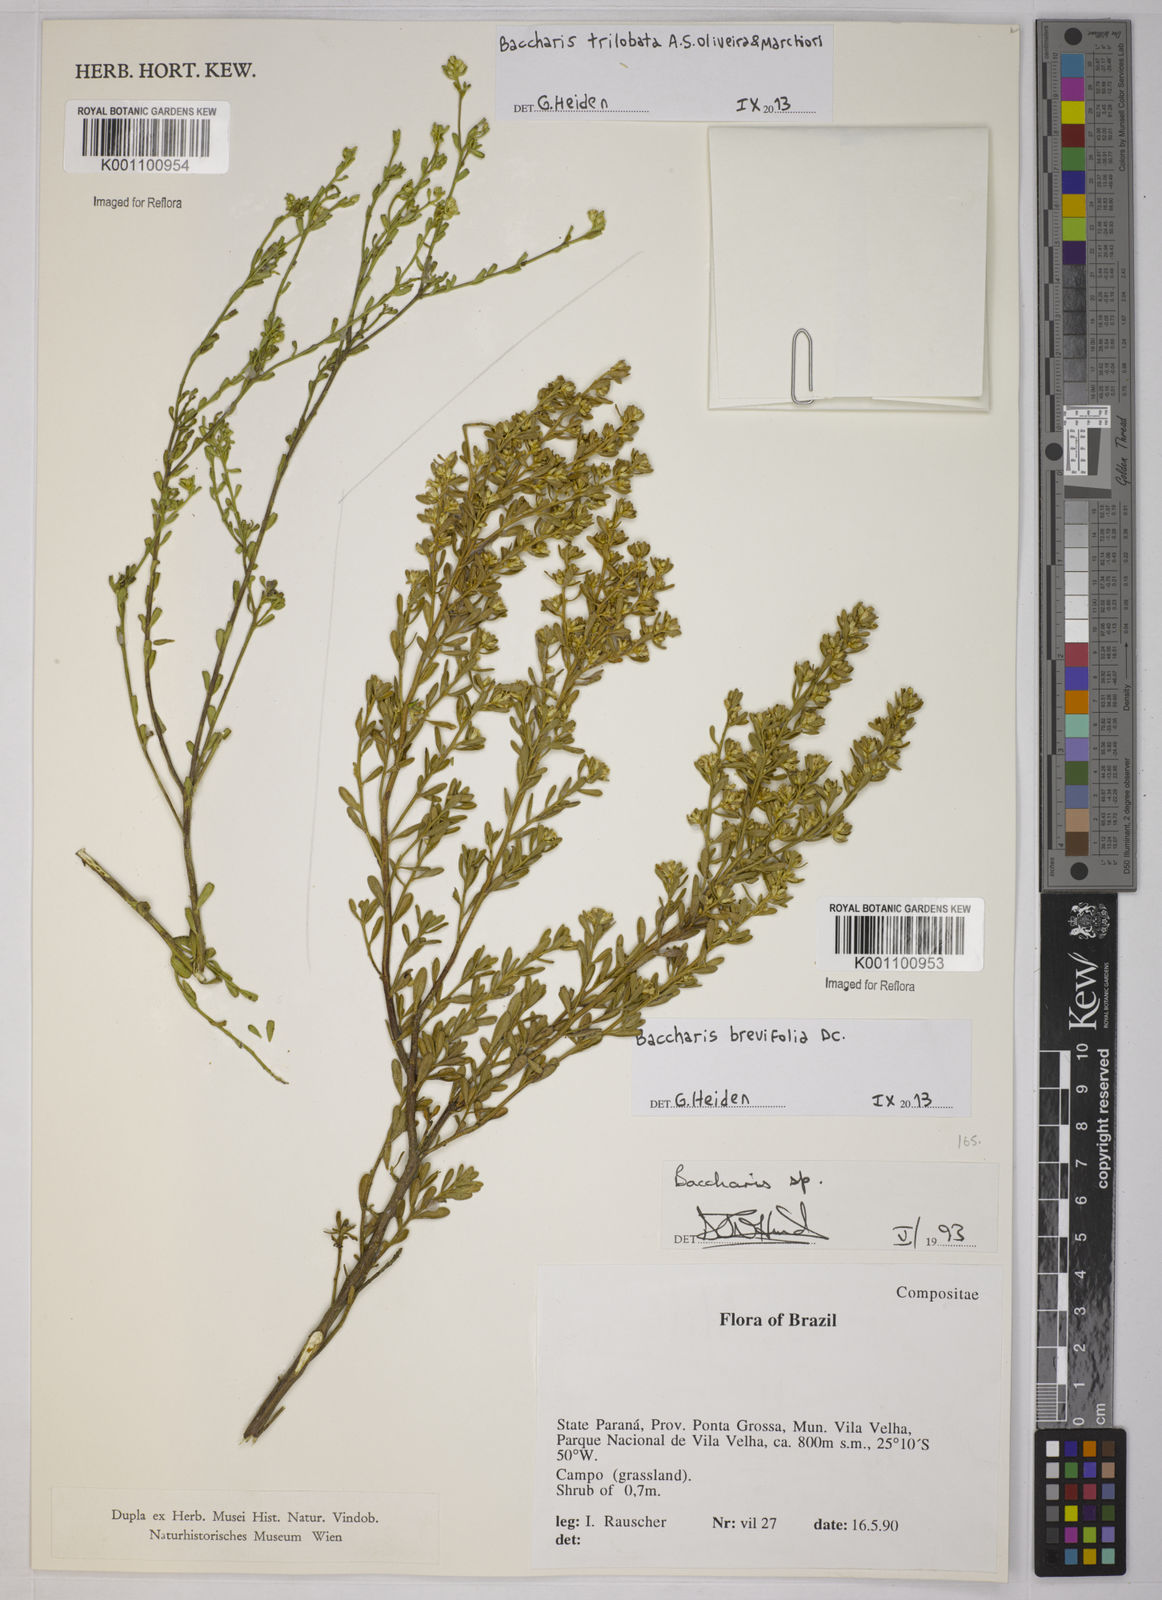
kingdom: Plantae
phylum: Tracheophyta
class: Magnoliopsida
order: Asterales
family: Asteraceae
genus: Baccharis
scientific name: Baccharis brevifolia
